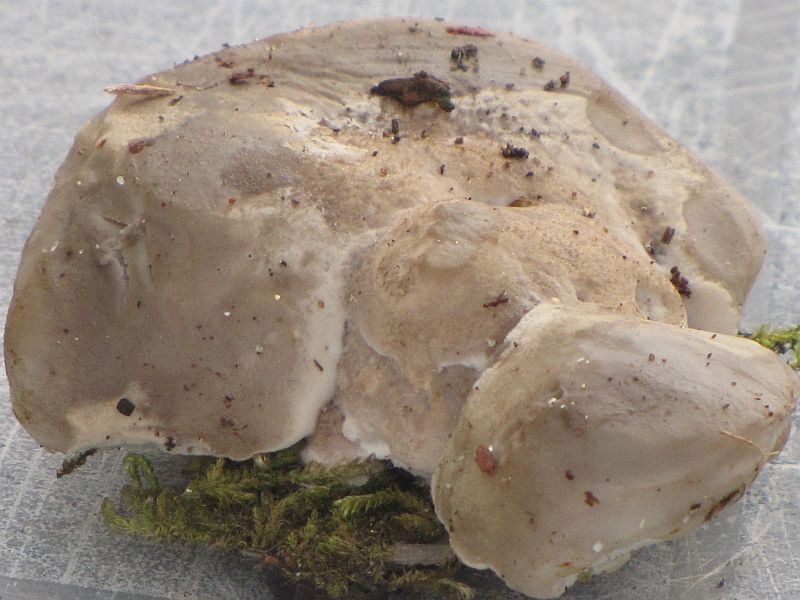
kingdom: Fungi
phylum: Basidiomycota
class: Agaricomycetes
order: Polyporales
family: Incrustoporiaceae
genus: Tyromyces
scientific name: Tyromyces lacteus
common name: mælkehvid kødporesvamp
